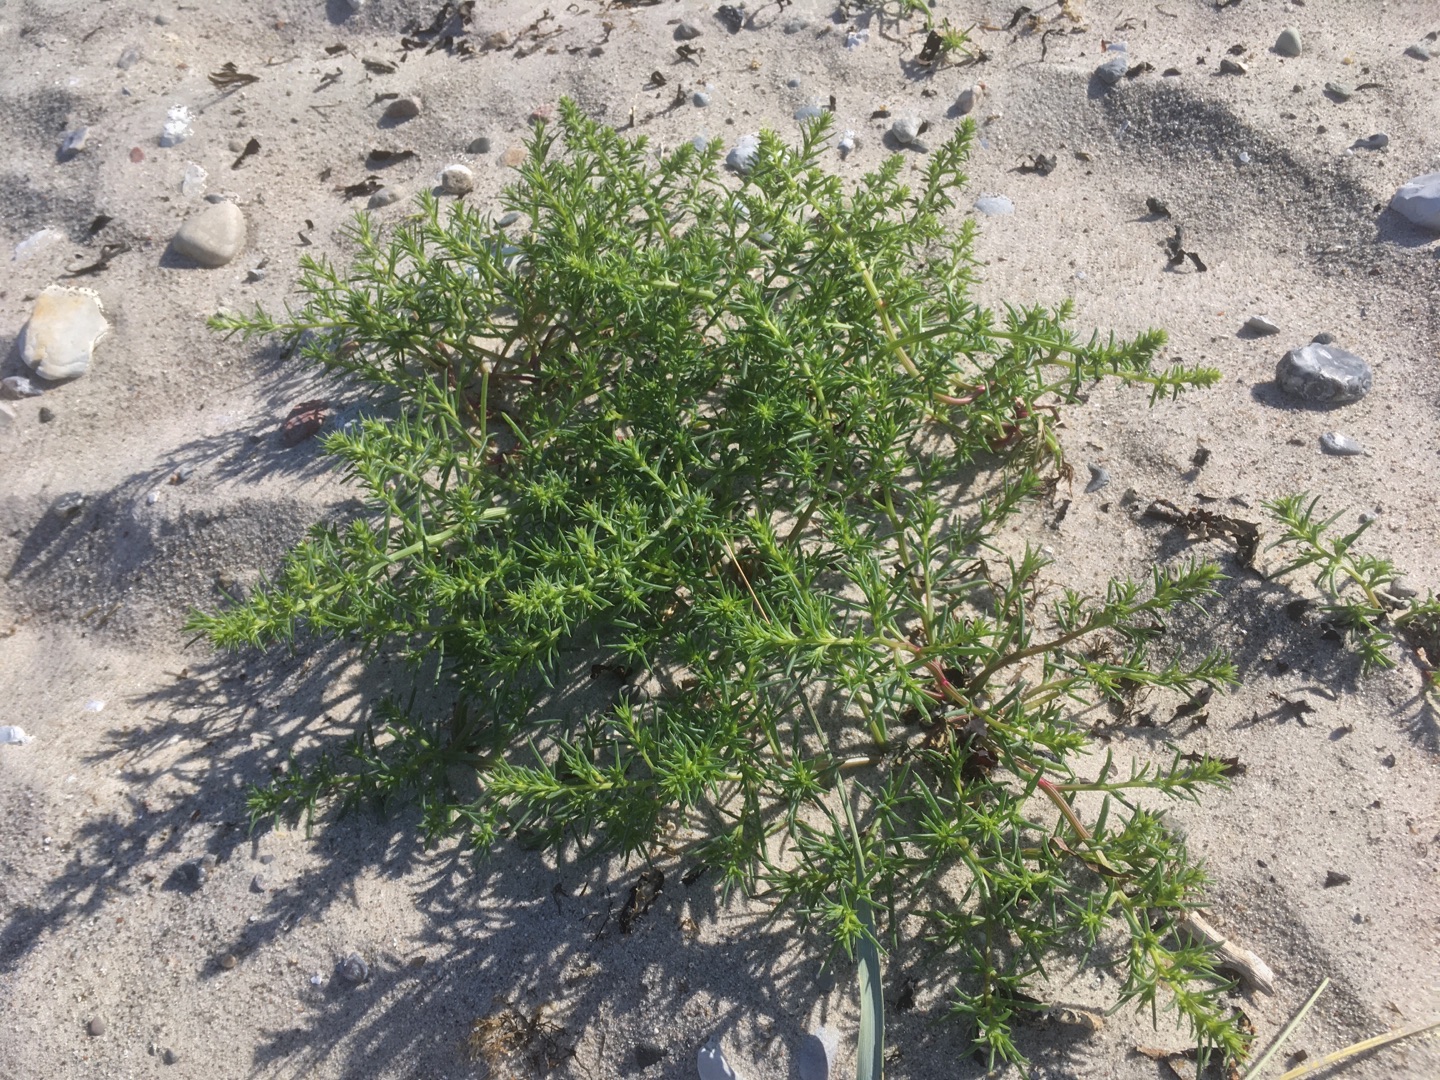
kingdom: Plantae
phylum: Tracheophyta
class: Magnoliopsida
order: Apiales
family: Apiaceae
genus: Eryngium
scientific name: Eryngium maritimum
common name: Strand-mandstro
